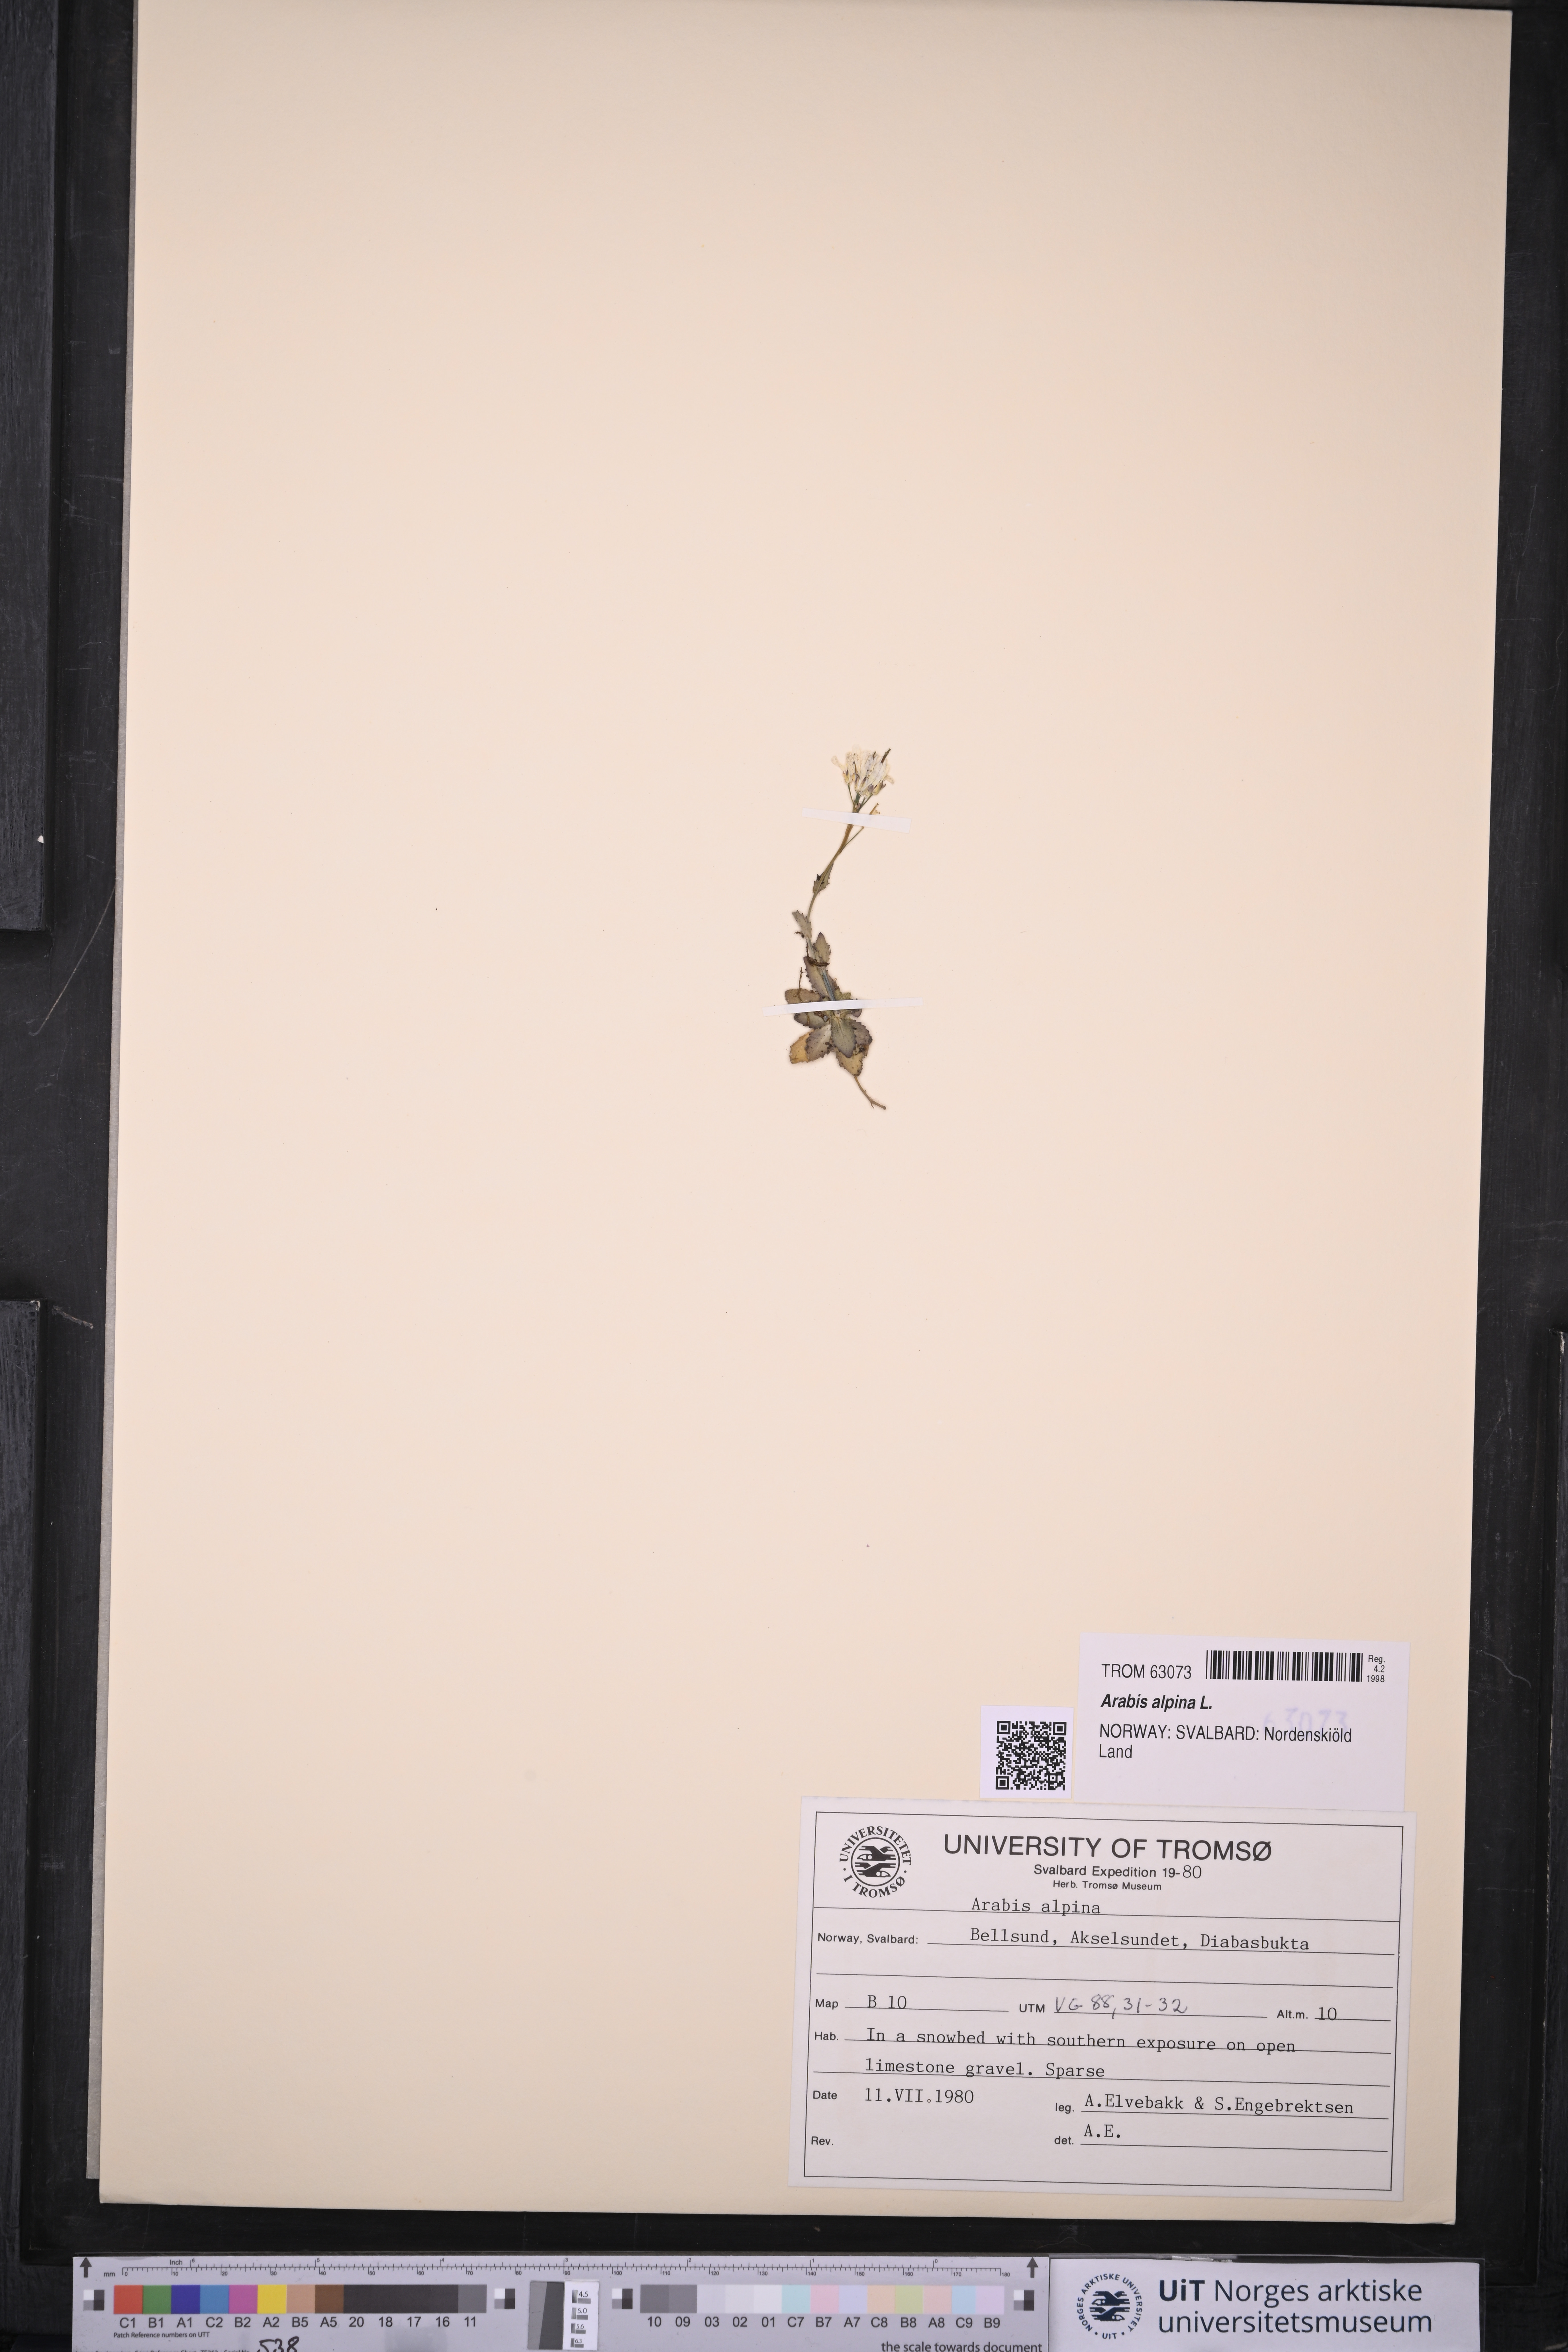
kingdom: Plantae
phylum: Tracheophyta
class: Magnoliopsida
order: Brassicales
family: Brassicaceae
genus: Arabis
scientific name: Arabis alpina
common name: Alpine rock-cress
